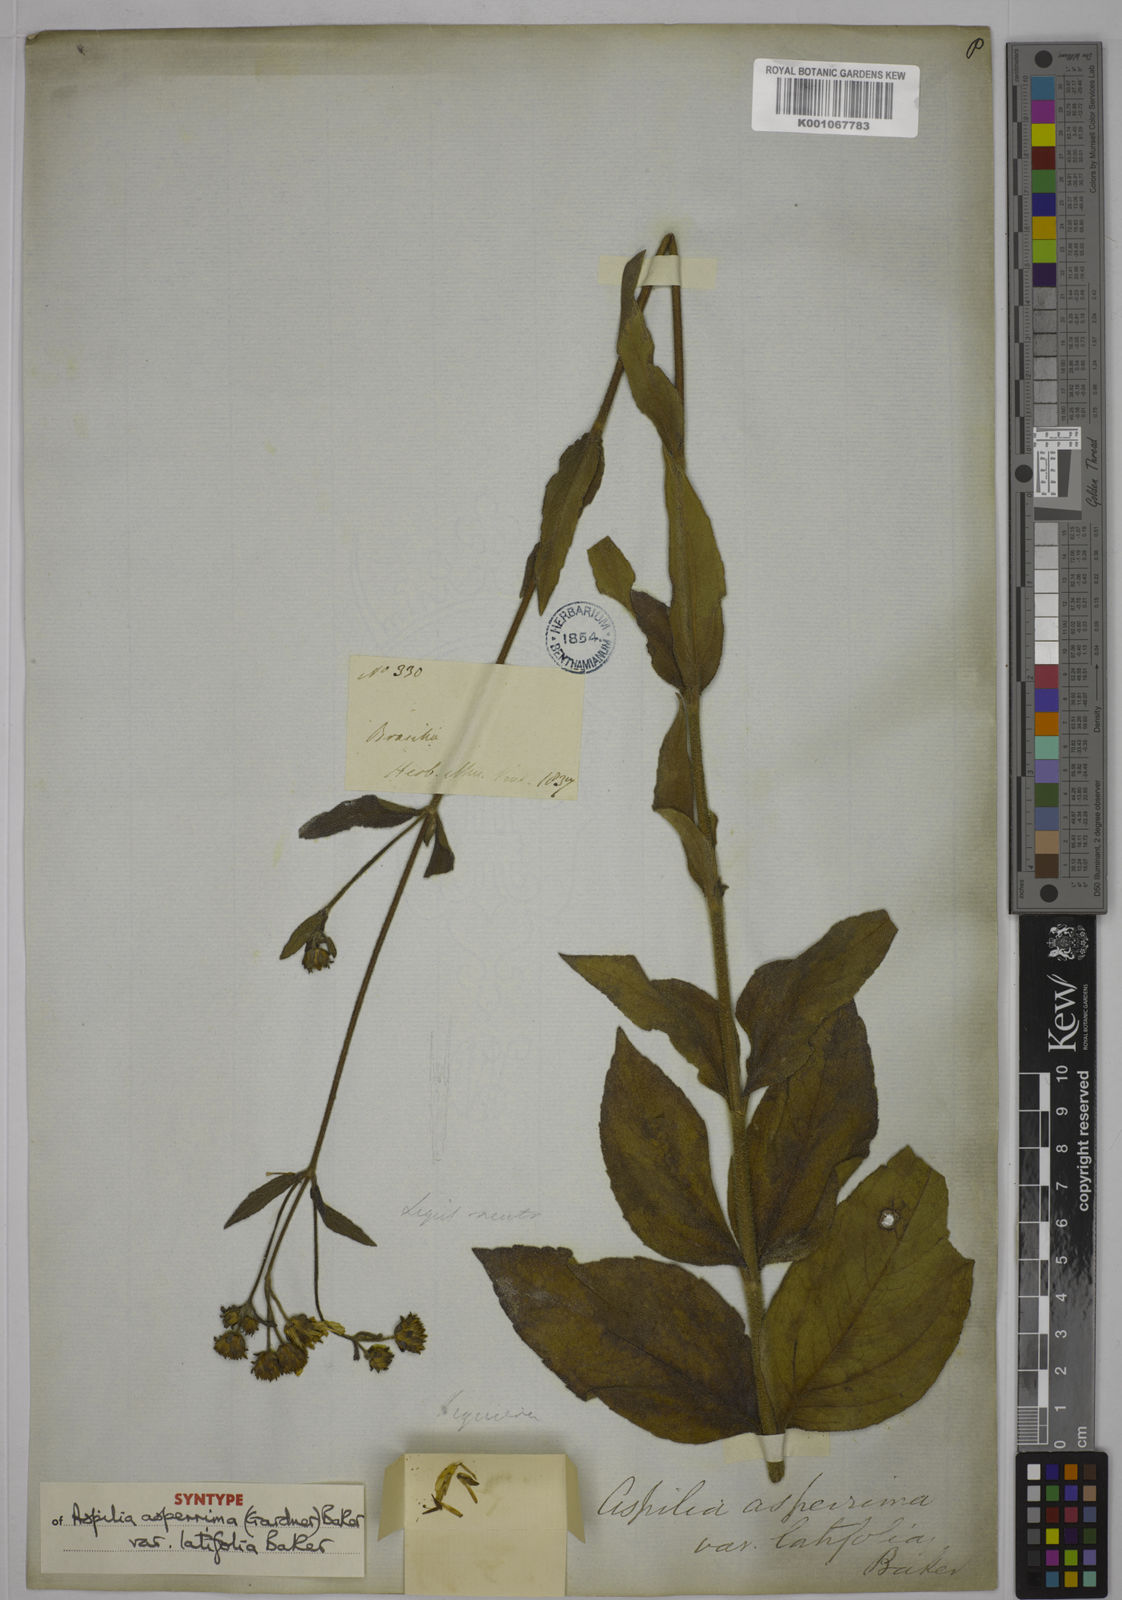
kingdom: Plantae
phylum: Tracheophyta
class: Magnoliopsida
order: Asterales
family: Asteraceae
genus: Wedelia
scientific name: Wedelia attenuata
